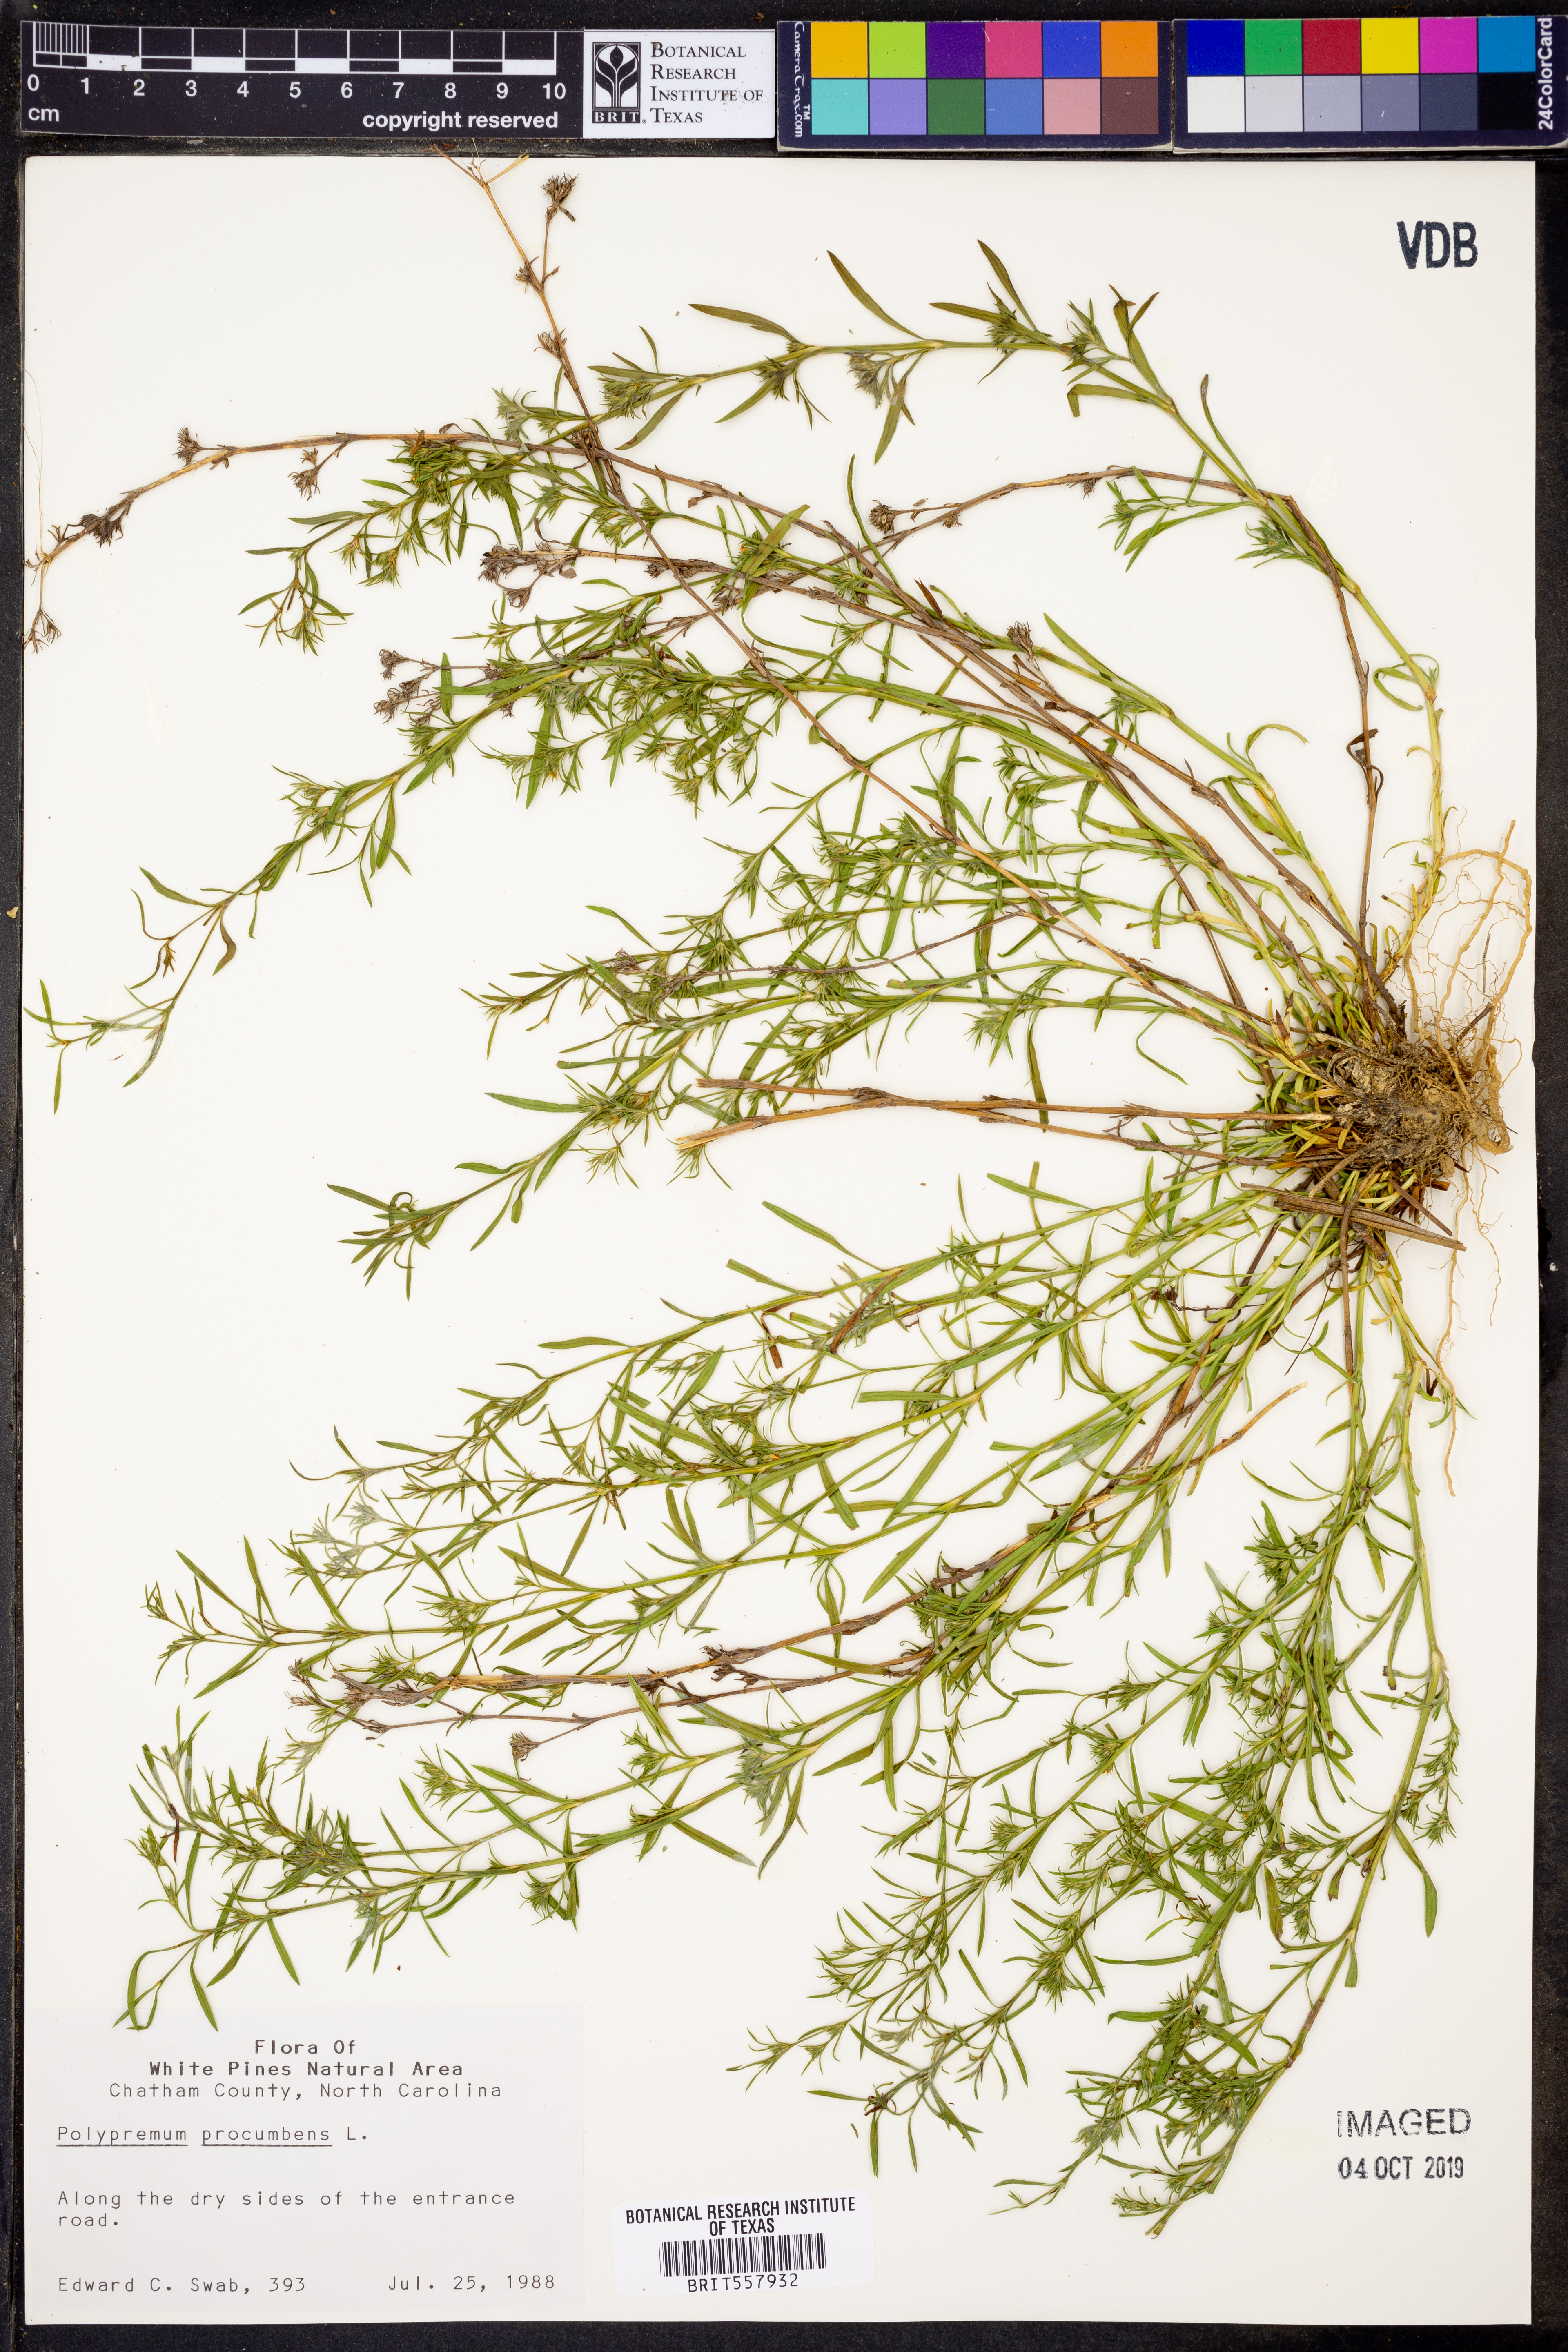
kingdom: Plantae
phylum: Tracheophyta
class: Magnoliopsida
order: Lamiales
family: Tetrachondraceae
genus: Polypremum
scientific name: Polypremum procumbens
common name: Juniper-leaf
